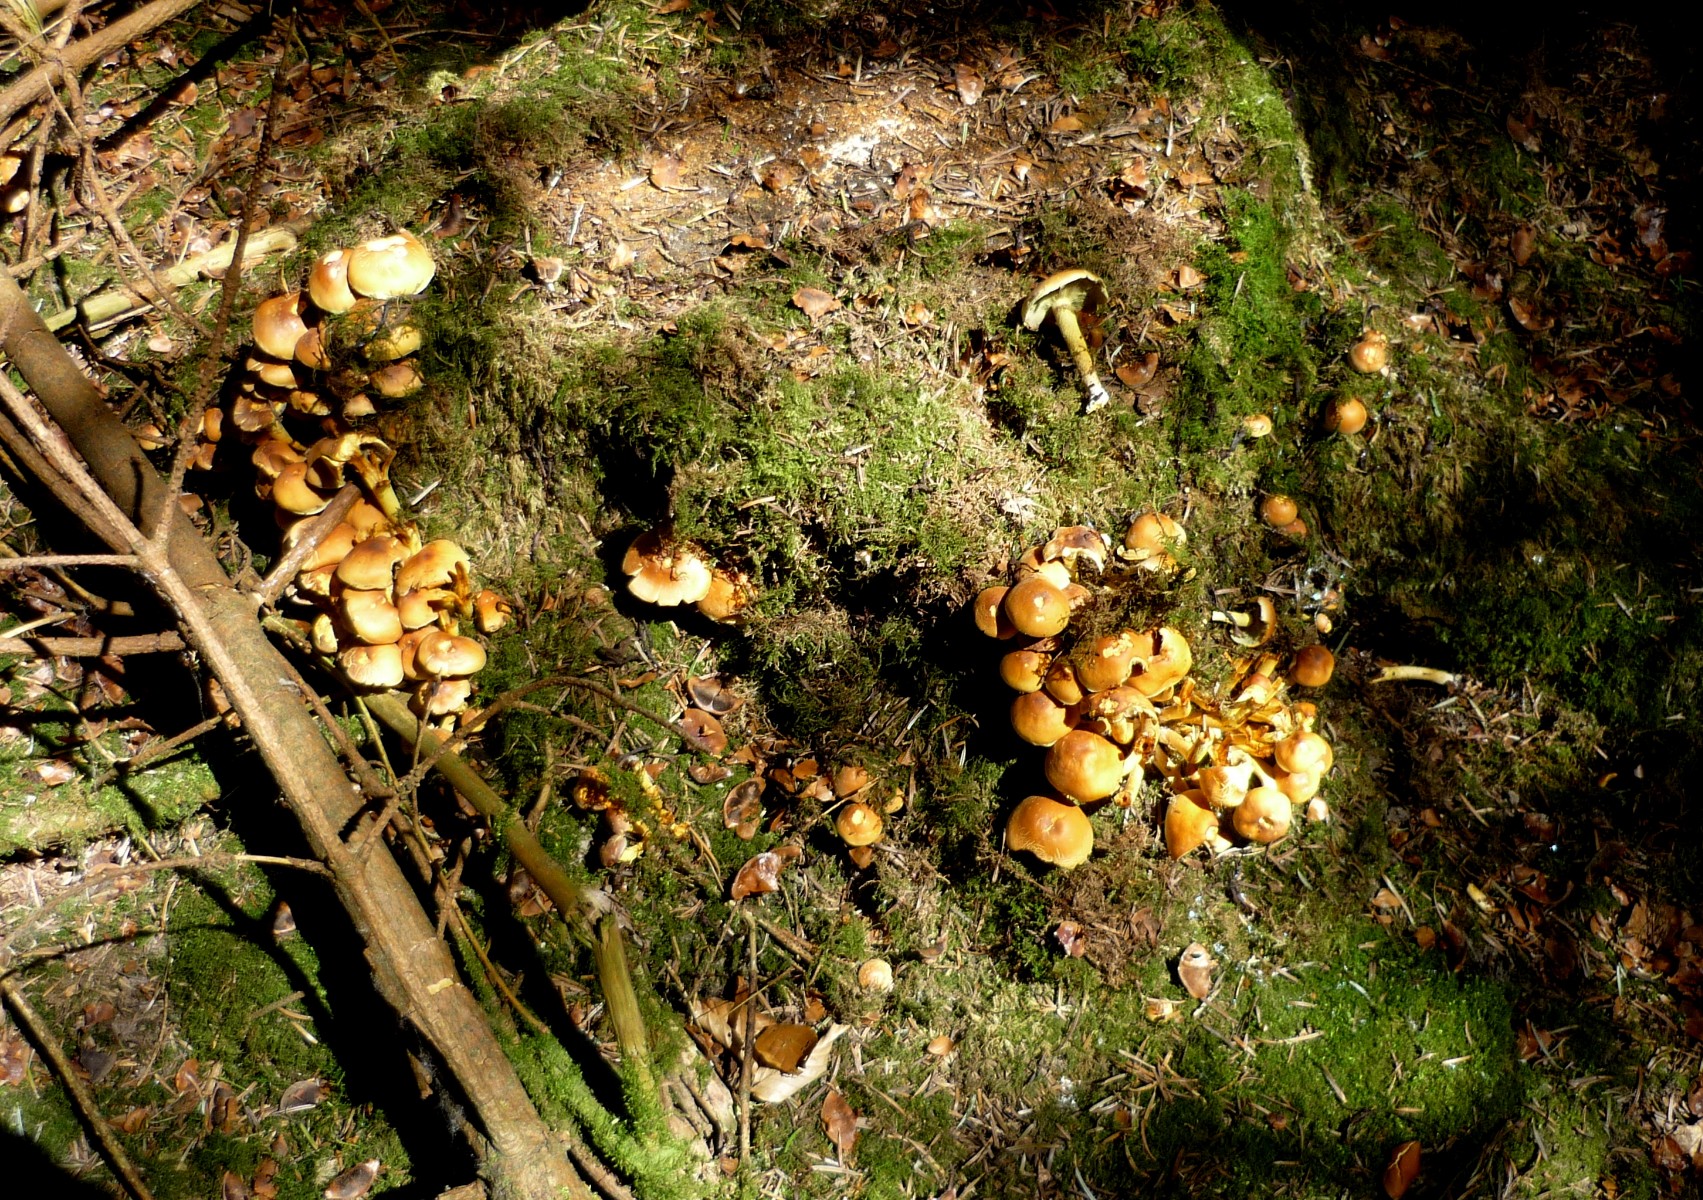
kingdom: Fungi
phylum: Basidiomycota
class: Agaricomycetes
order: Agaricales
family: Strophariaceae
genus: Hypholoma
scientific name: Hypholoma fasciculare
